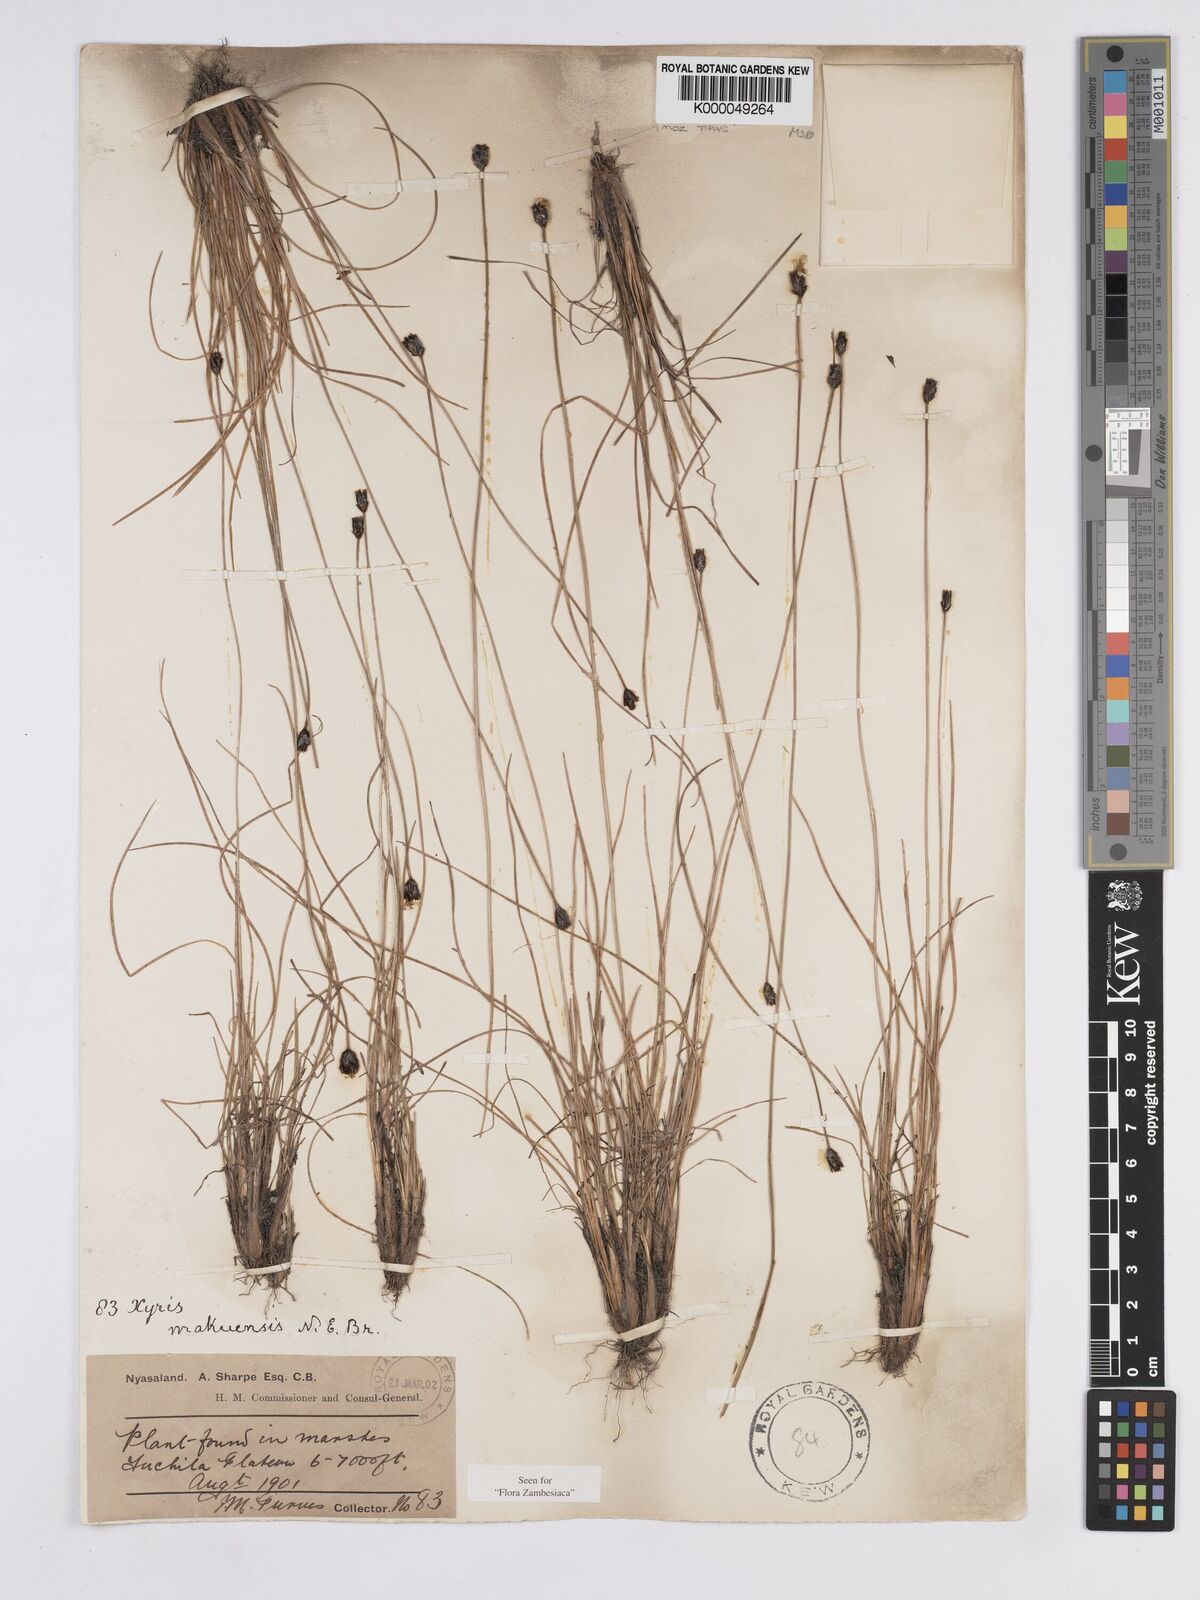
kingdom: Plantae
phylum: Tracheophyta
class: Liliopsida
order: Poales
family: Xyridaceae
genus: Xyris
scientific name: Xyris makuensis
